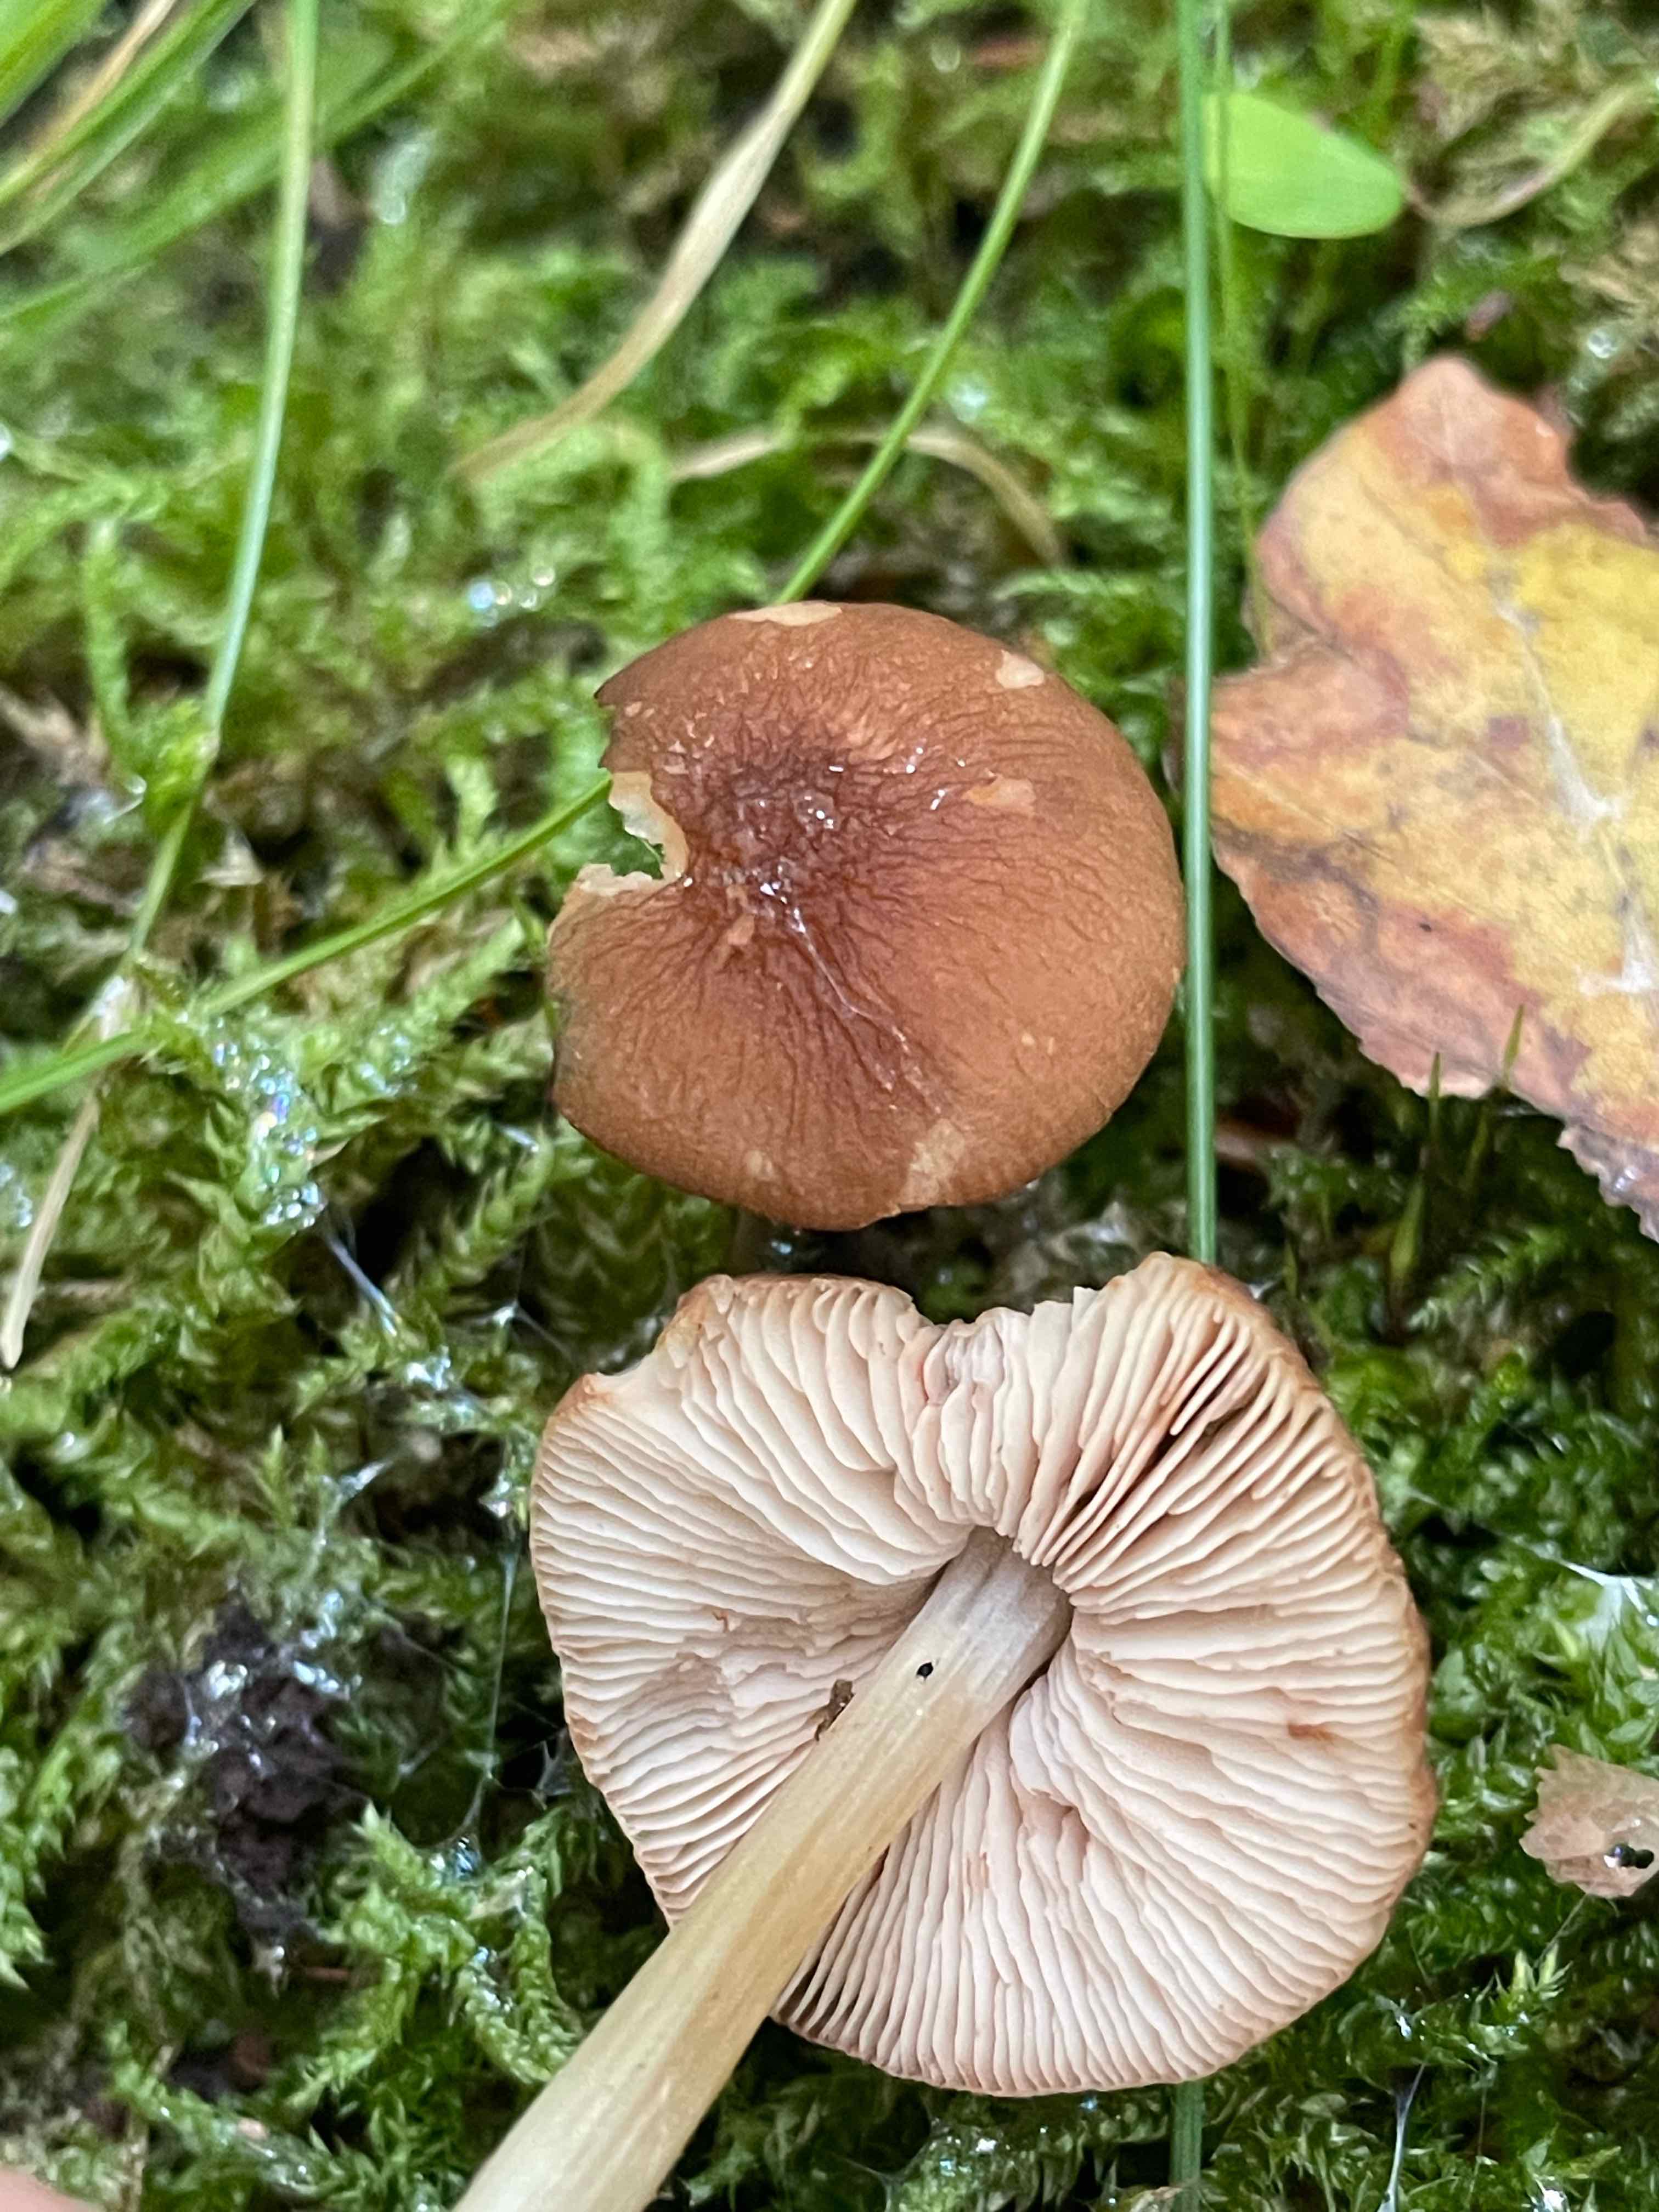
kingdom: Fungi
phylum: Basidiomycota
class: Agaricomycetes
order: Agaricales
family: Pluteaceae
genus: Pluteus
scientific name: Pluteus phlebophorus
